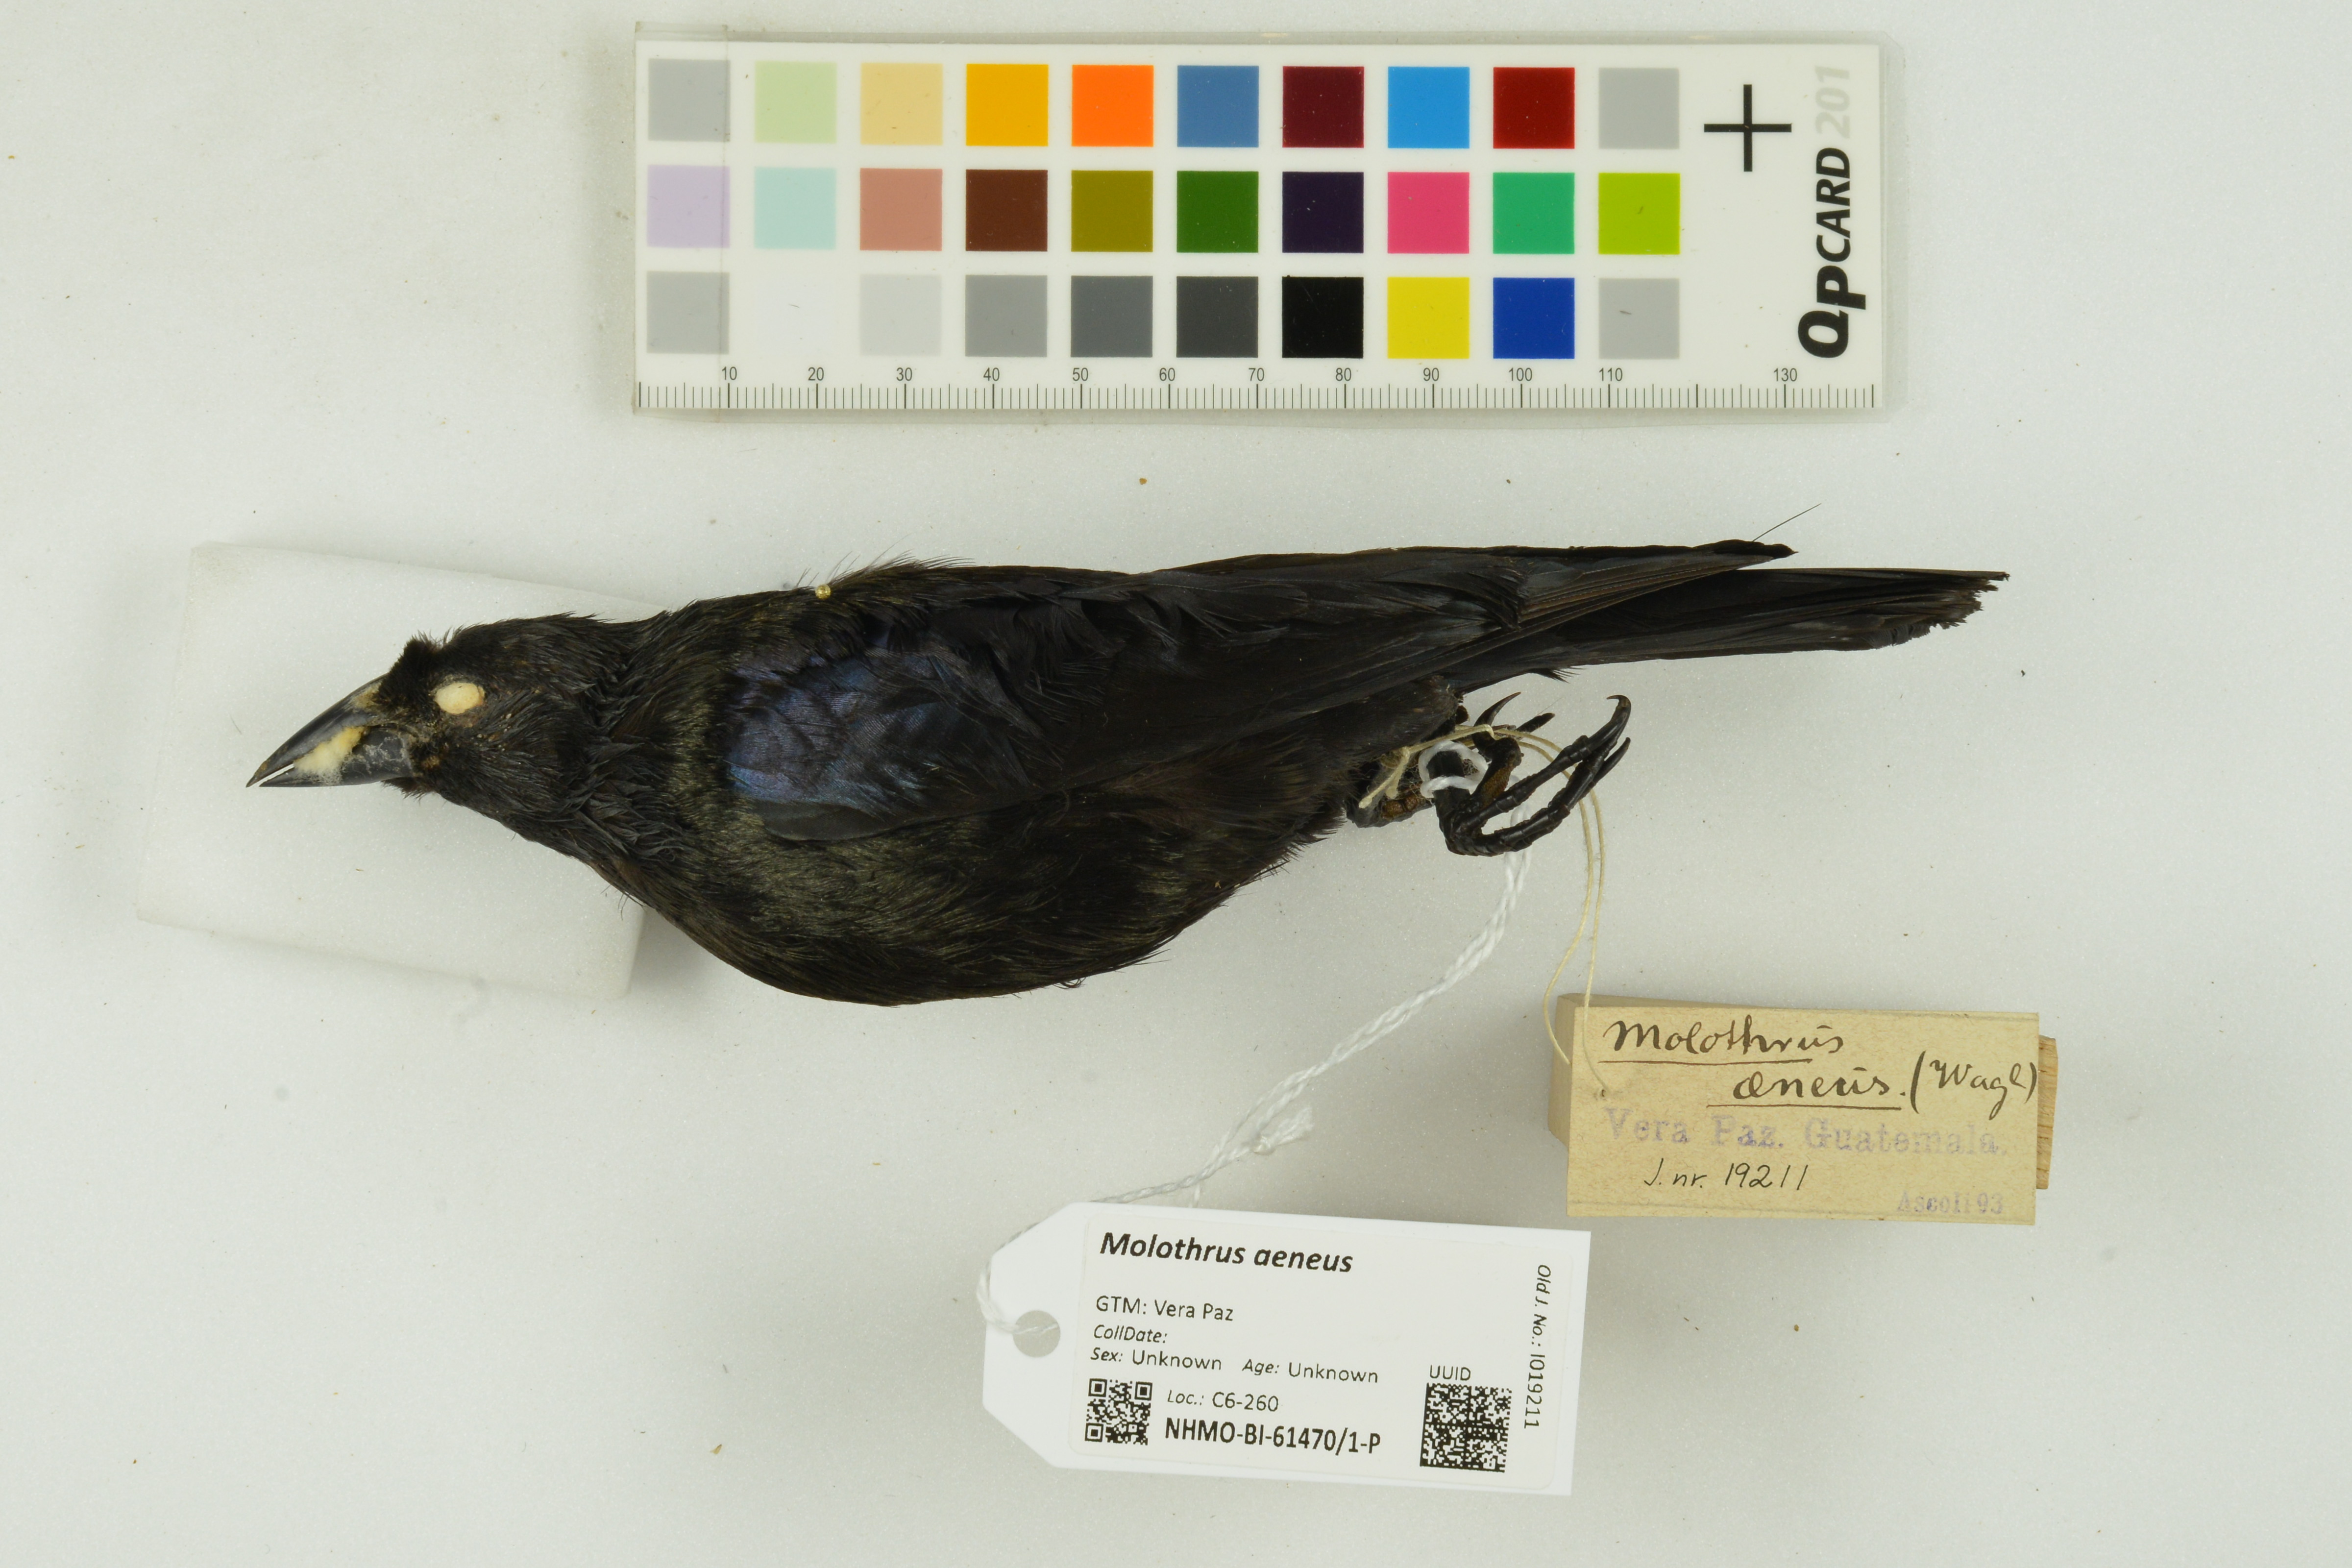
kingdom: Animalia
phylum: Chordata
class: Aves
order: Passeriformes
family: Icteridae
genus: Molothrus
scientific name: Molothrus aeneus
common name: Bronzed cowbird
